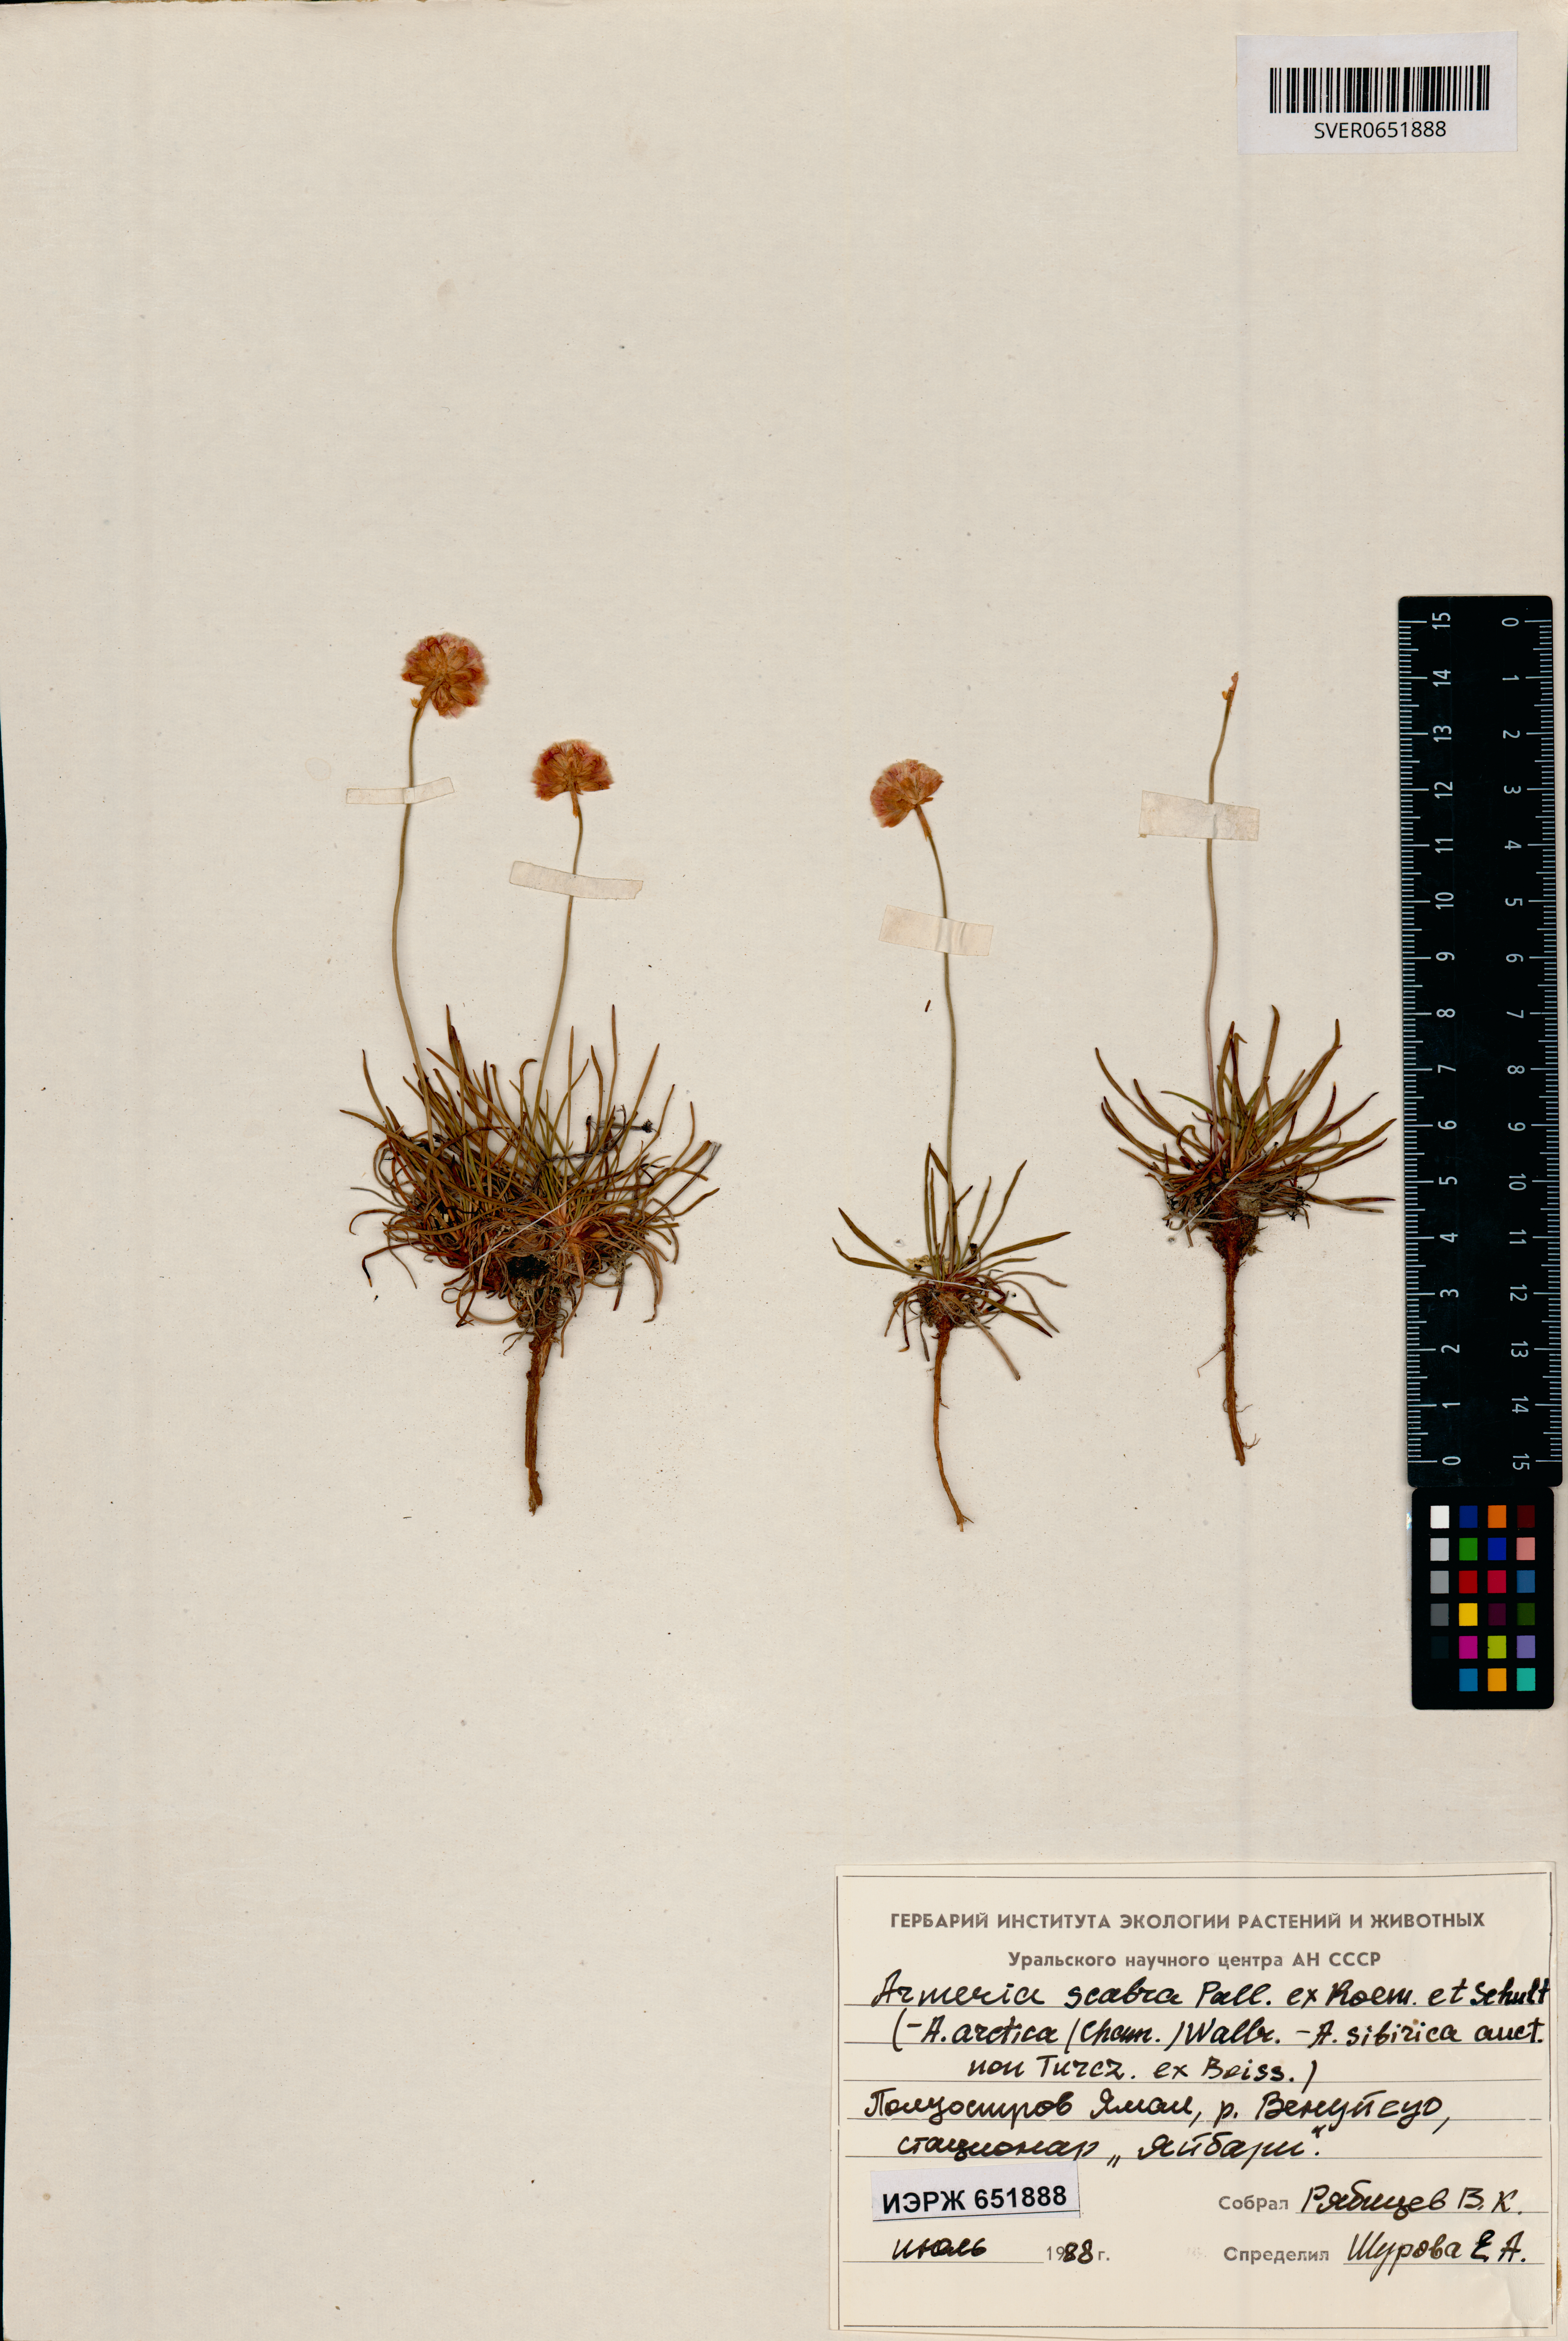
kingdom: Plantae
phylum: Tracheophyta
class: Magnoliopsida
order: Caryophyllales
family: Plumbaginaceae
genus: Armeria
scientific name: Armeria maritima
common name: Thrift
